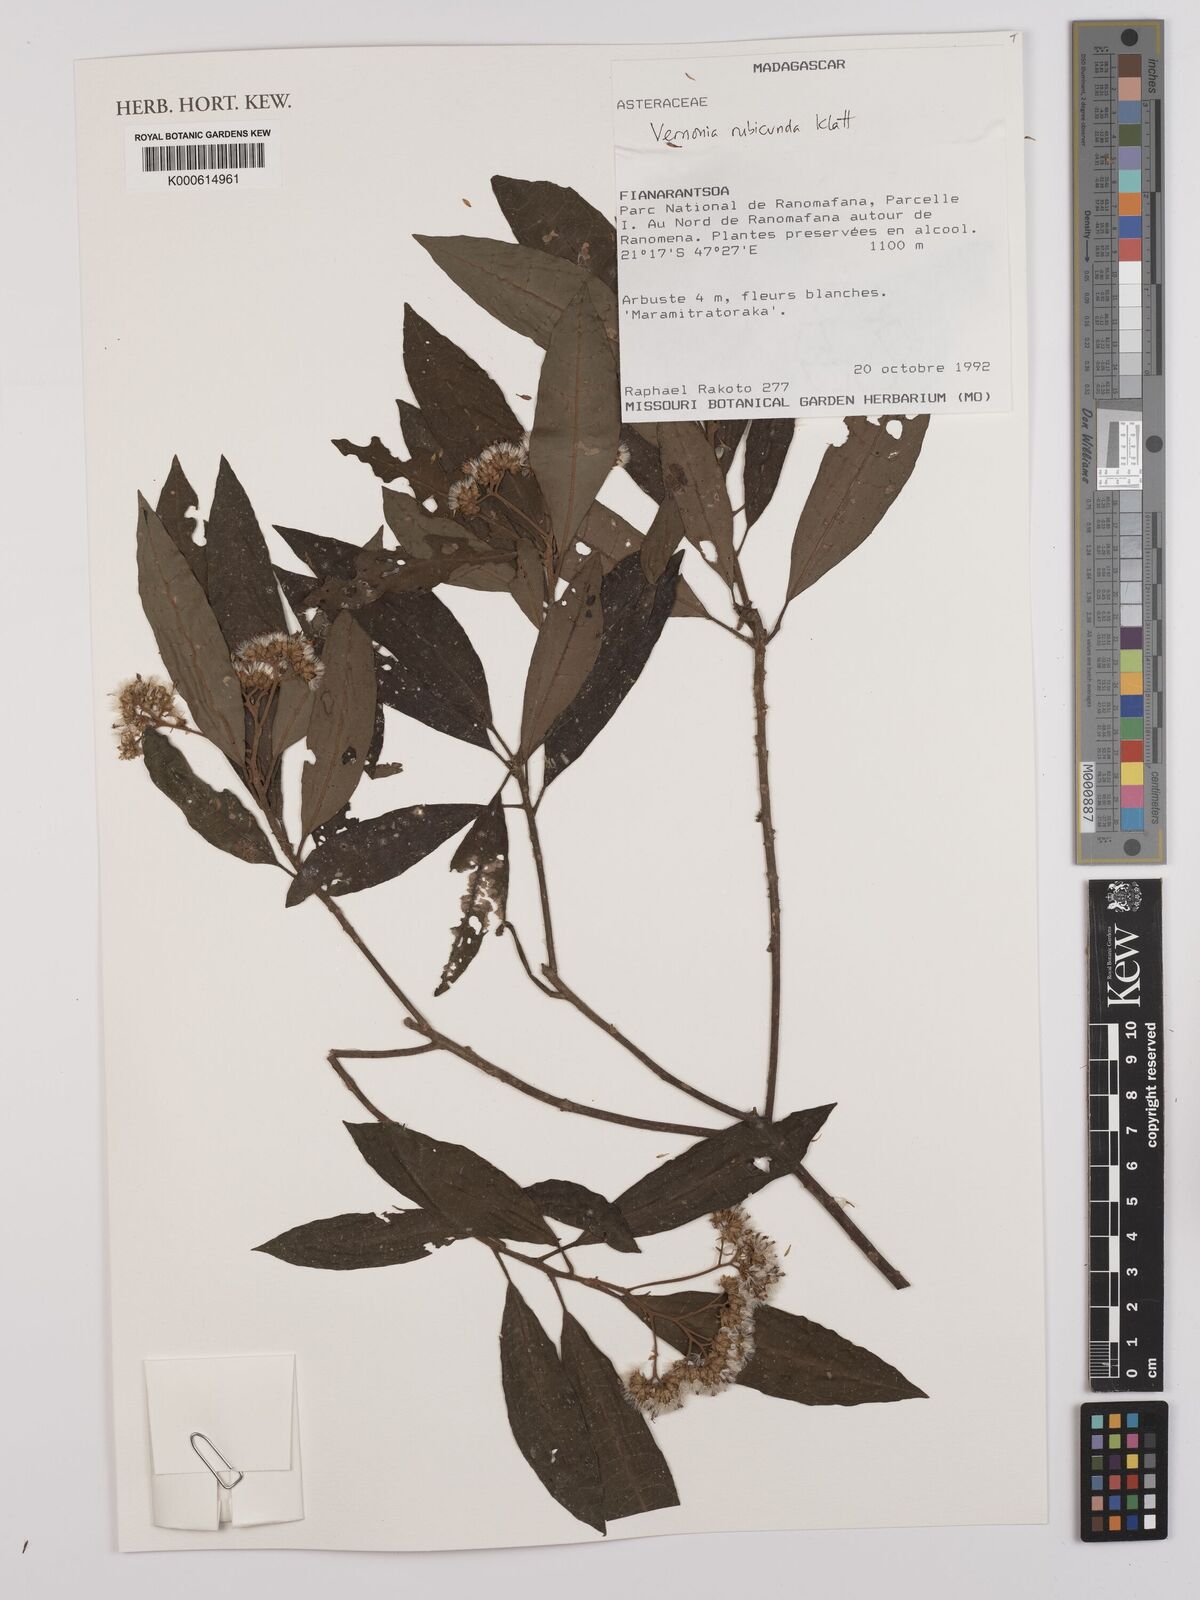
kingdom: Plantae
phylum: Tracheophyta
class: Magnoliopsida
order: Asterales
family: Asteraceae
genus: Jeffreycia
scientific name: Jeffreycia hildebrandtii
